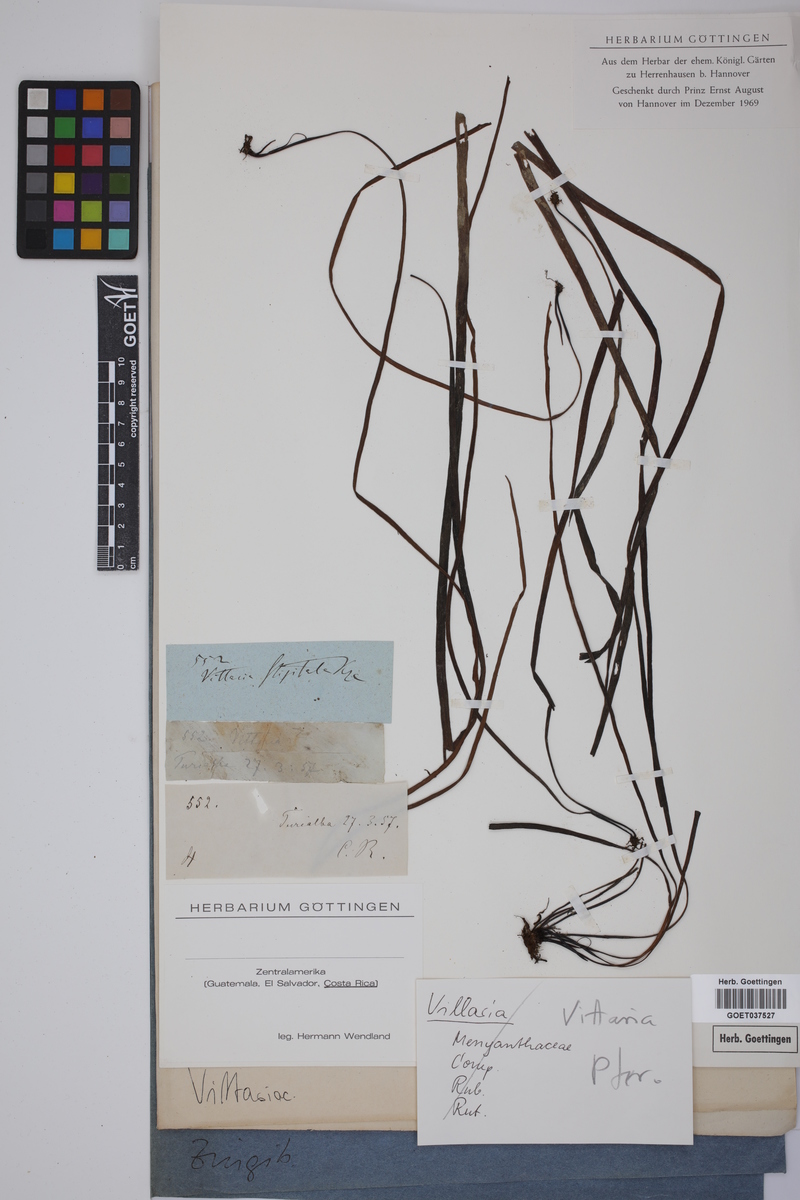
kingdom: Plantae
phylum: Tracheophyta
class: Polypodiopsida
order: Polypodiales
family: Pteridaceae
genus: Radiovittaria
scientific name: Radiovittaria stipitata
